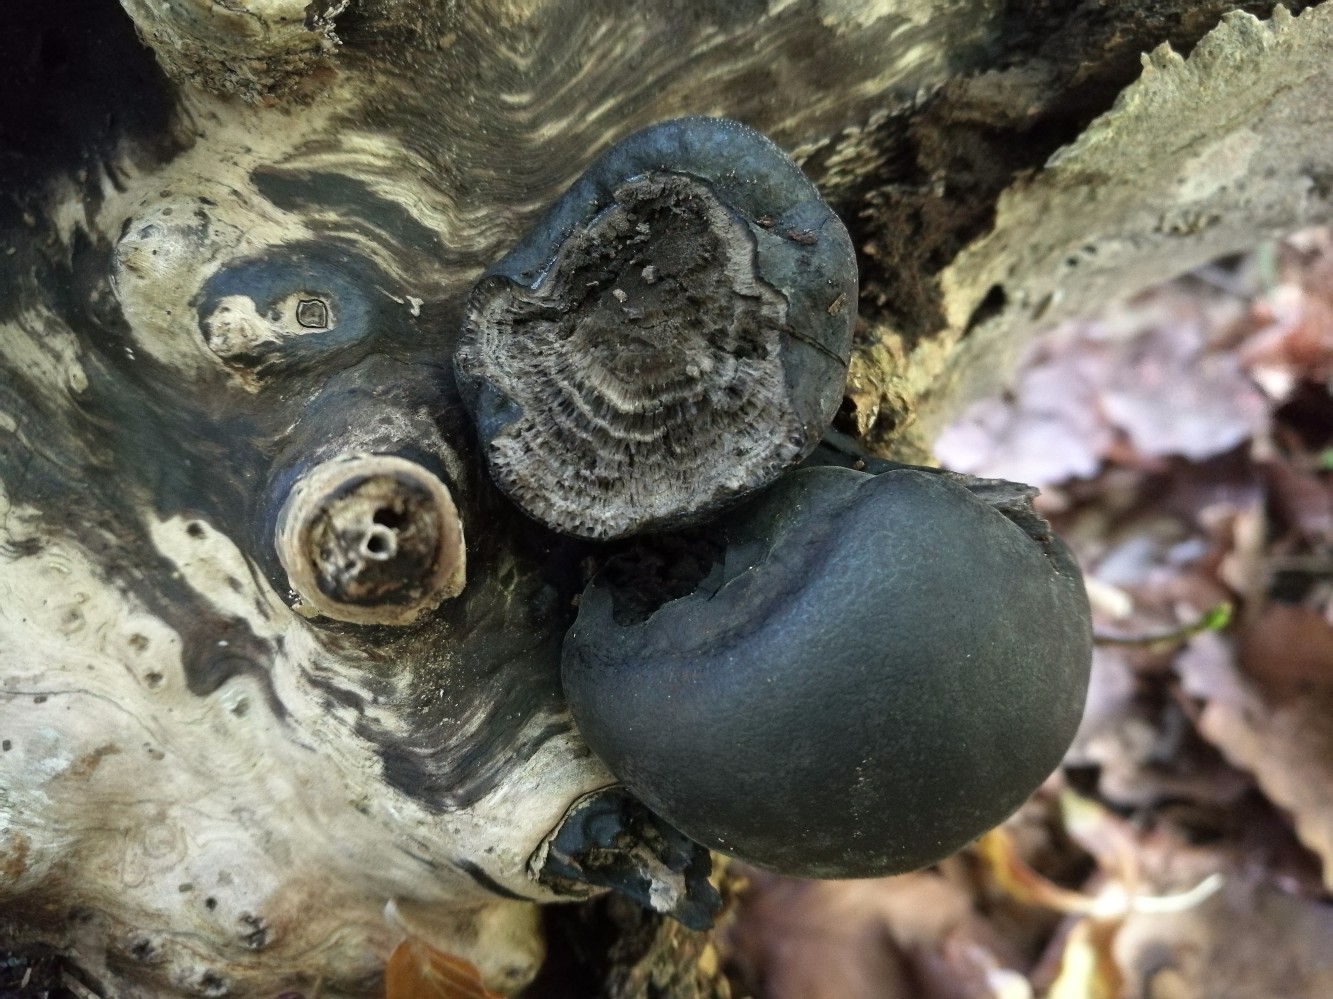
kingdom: Fungi
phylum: Ascomycota
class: Sordariomycetes
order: Xylariales
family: Hypoxylaceae
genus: Daldinia
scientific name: Daldinia concentrica
